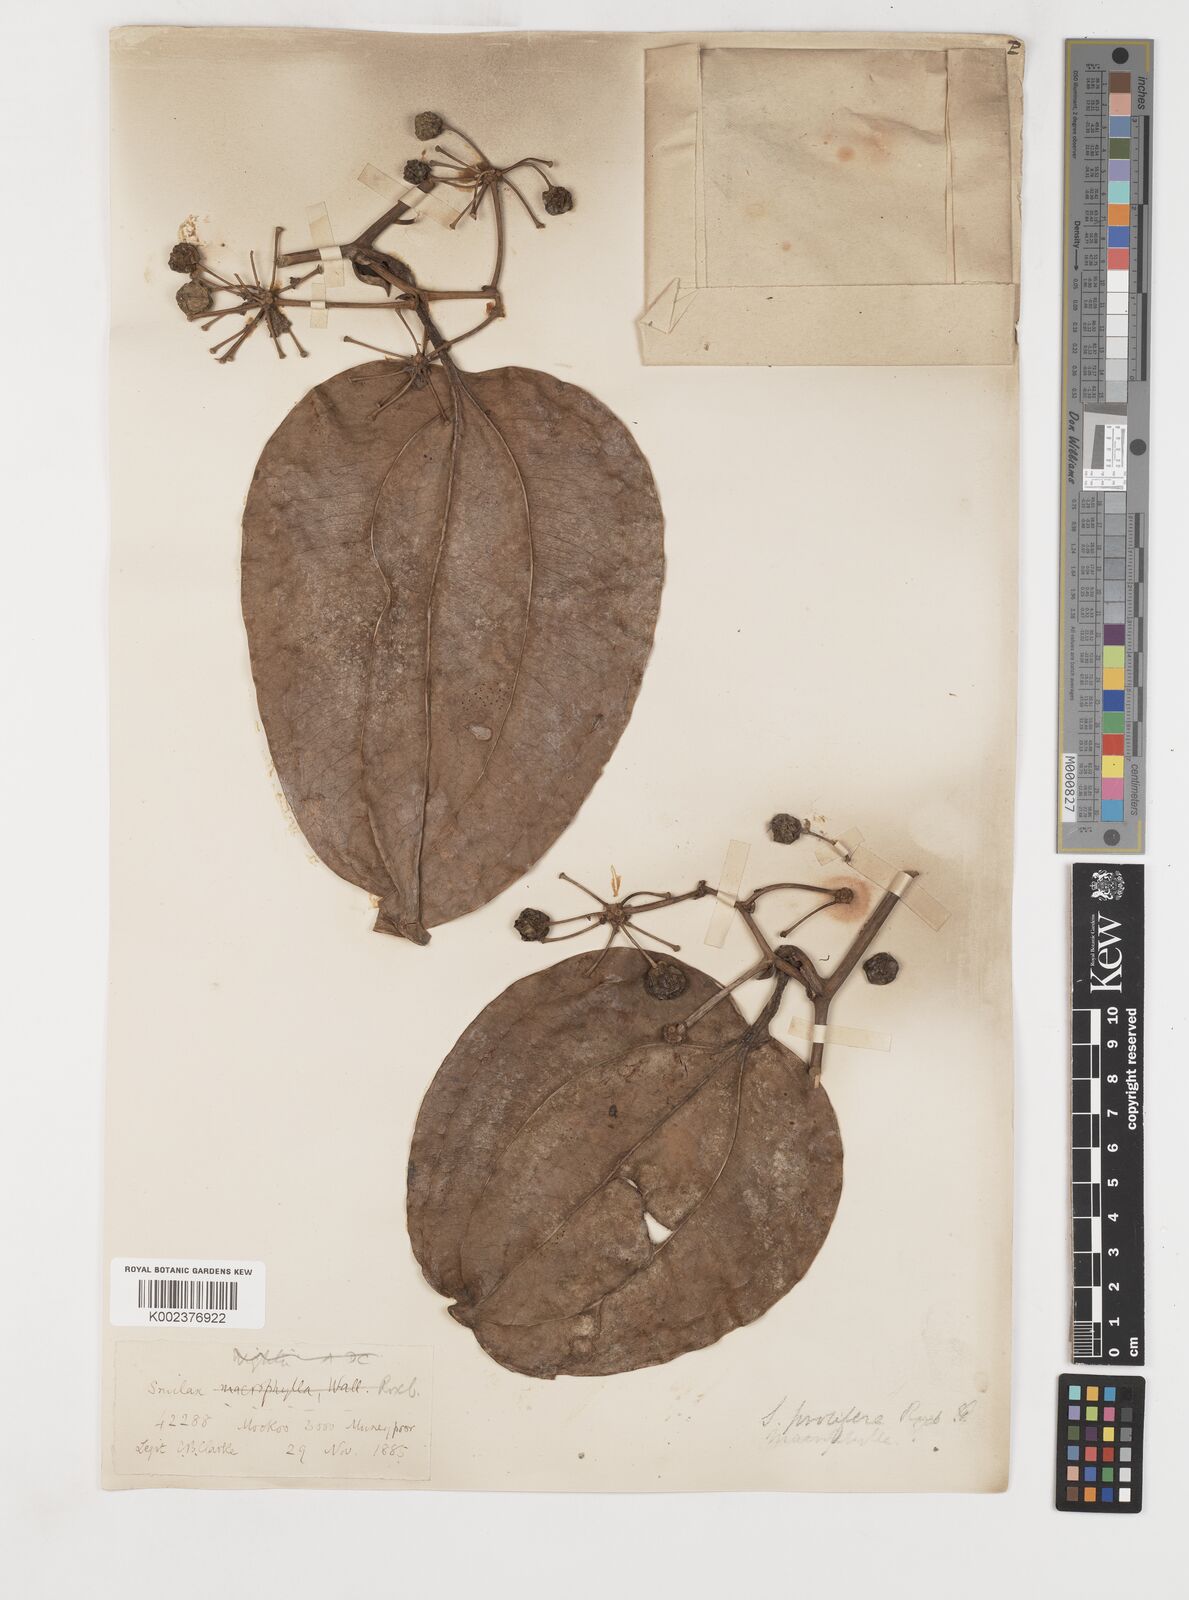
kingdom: Plantae
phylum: Tracheophyta
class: Liliopsida
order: Liliales
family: Smilacaceae
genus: Smilax
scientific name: Smilax ovalifolia
